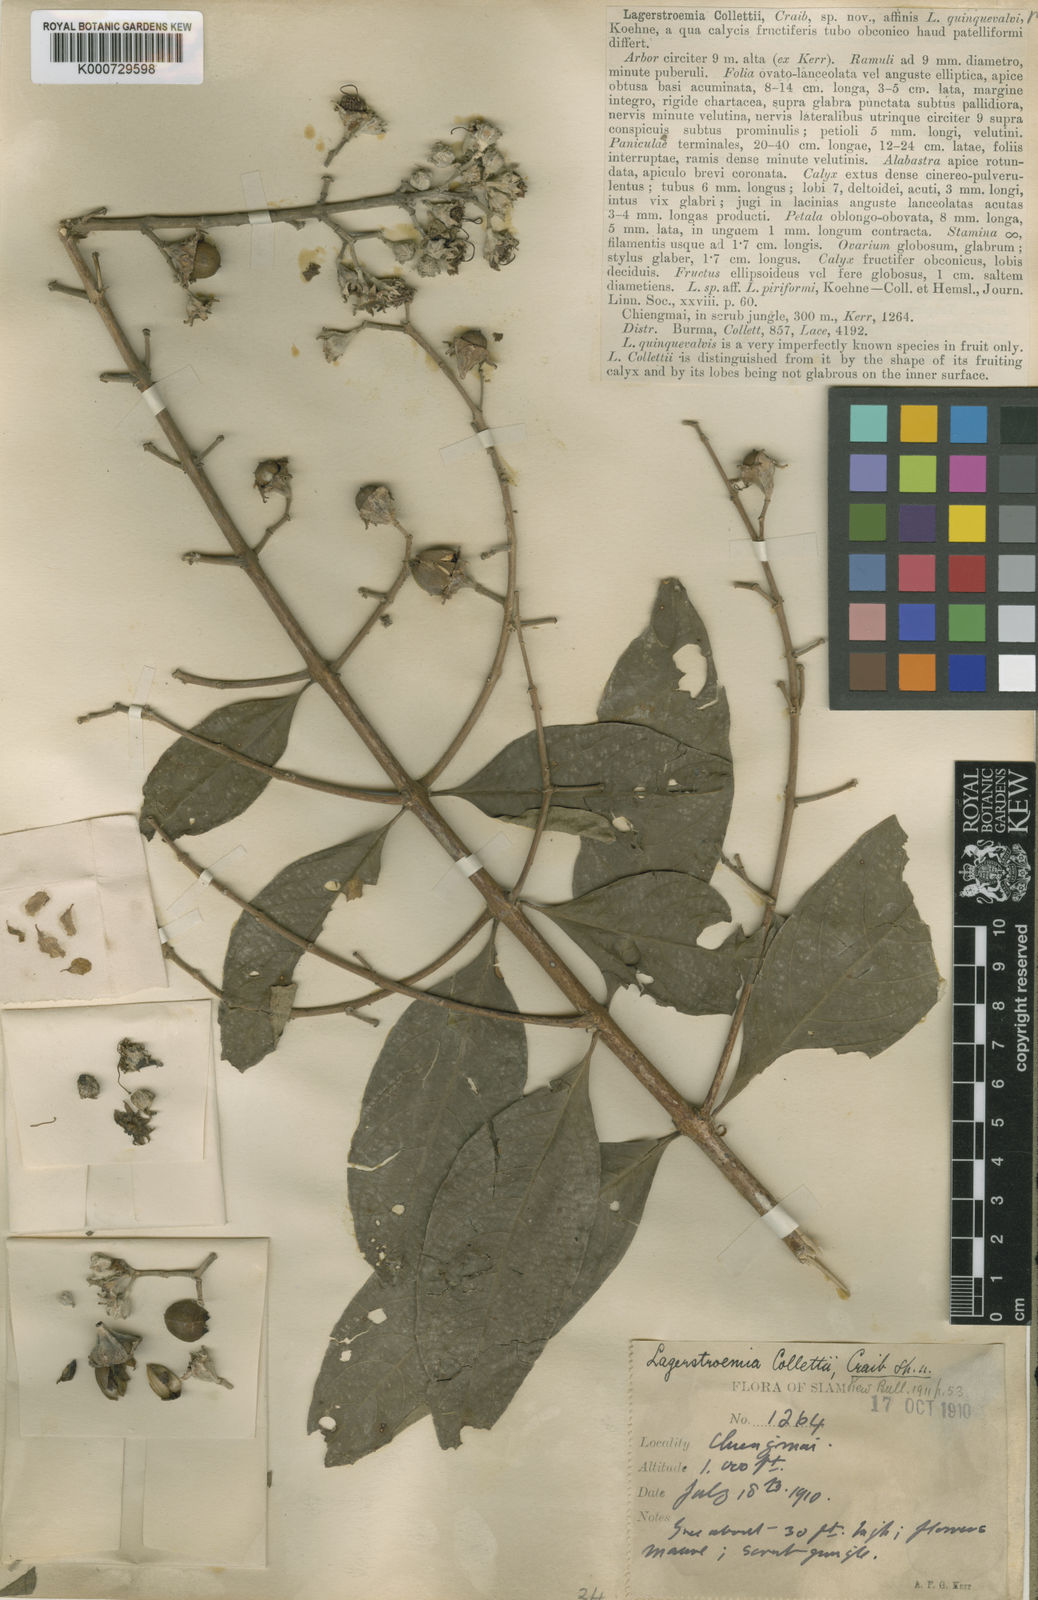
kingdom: Plantae
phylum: Tracheophyta
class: Magnoliopsida
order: Myrtales
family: Lythraceae
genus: Lagerstroemia
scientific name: Lagerstroemia venusta
